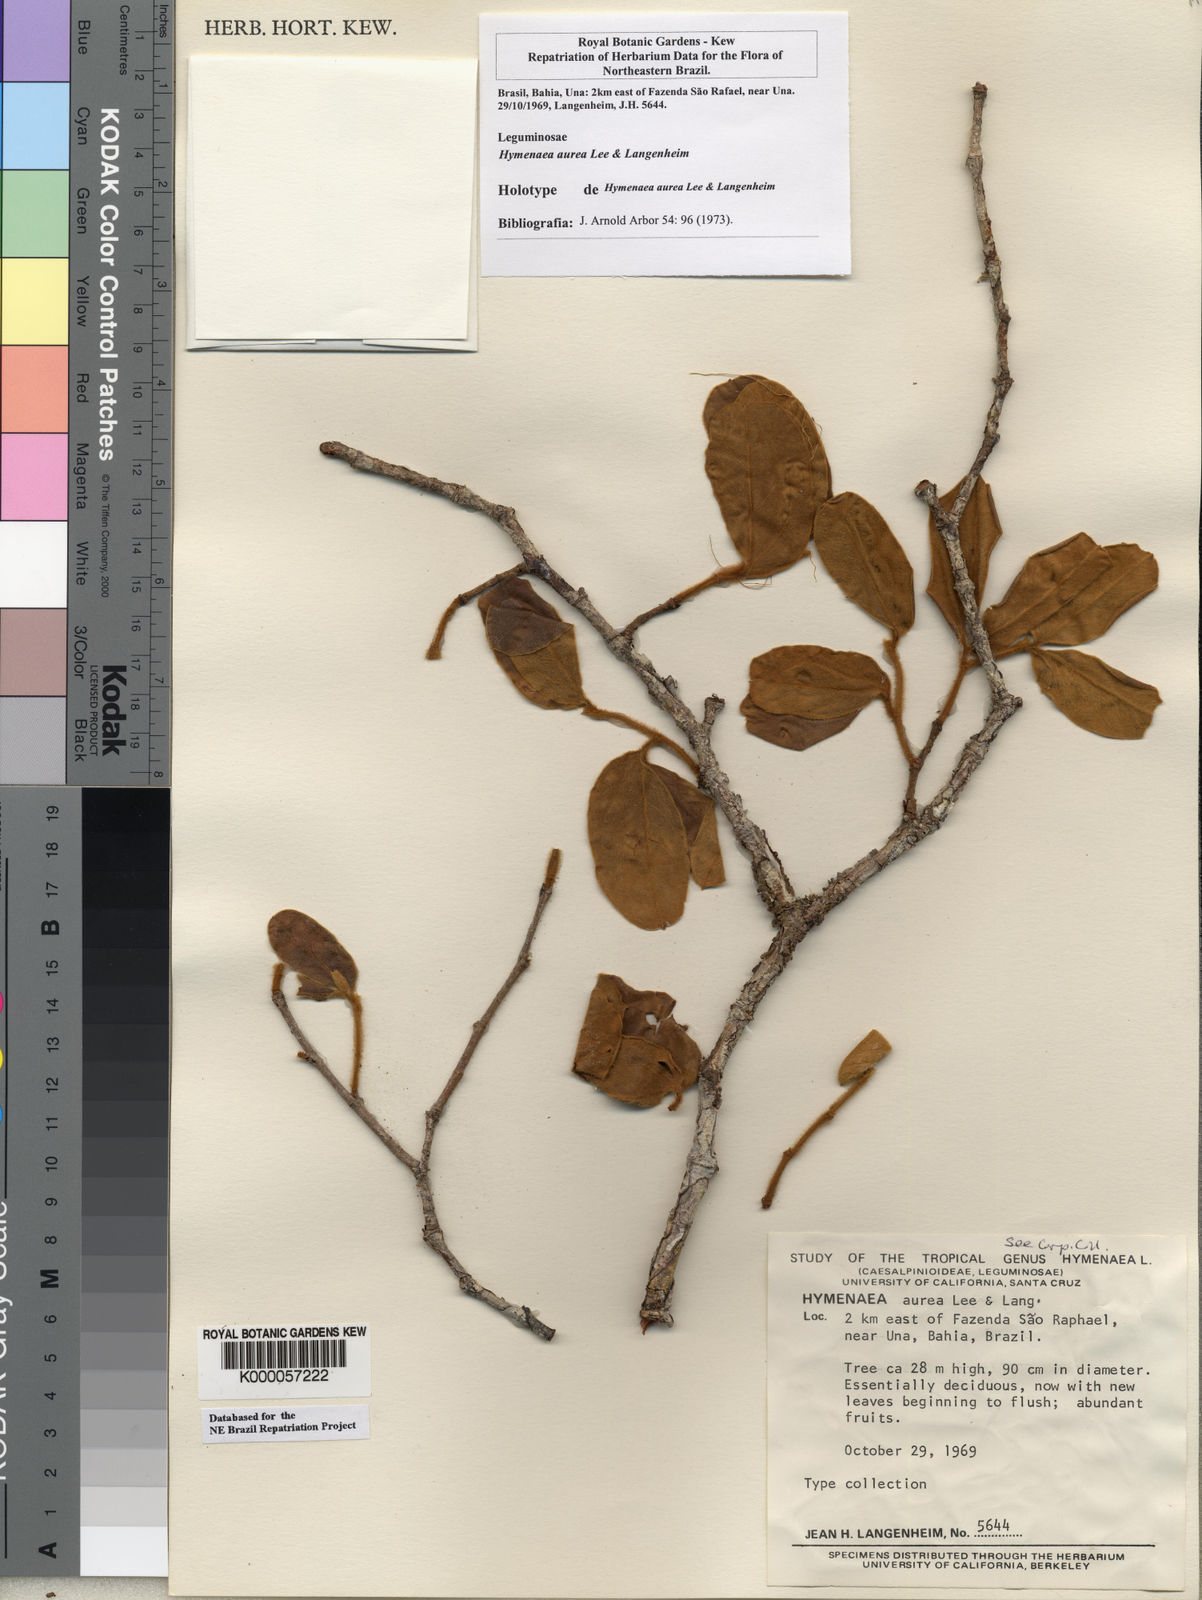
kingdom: Plantae
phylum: Tracheophyta
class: Magnoliopsida
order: Fabales
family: Fabaceae
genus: Hymenaea
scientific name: Hymenaea aurea
